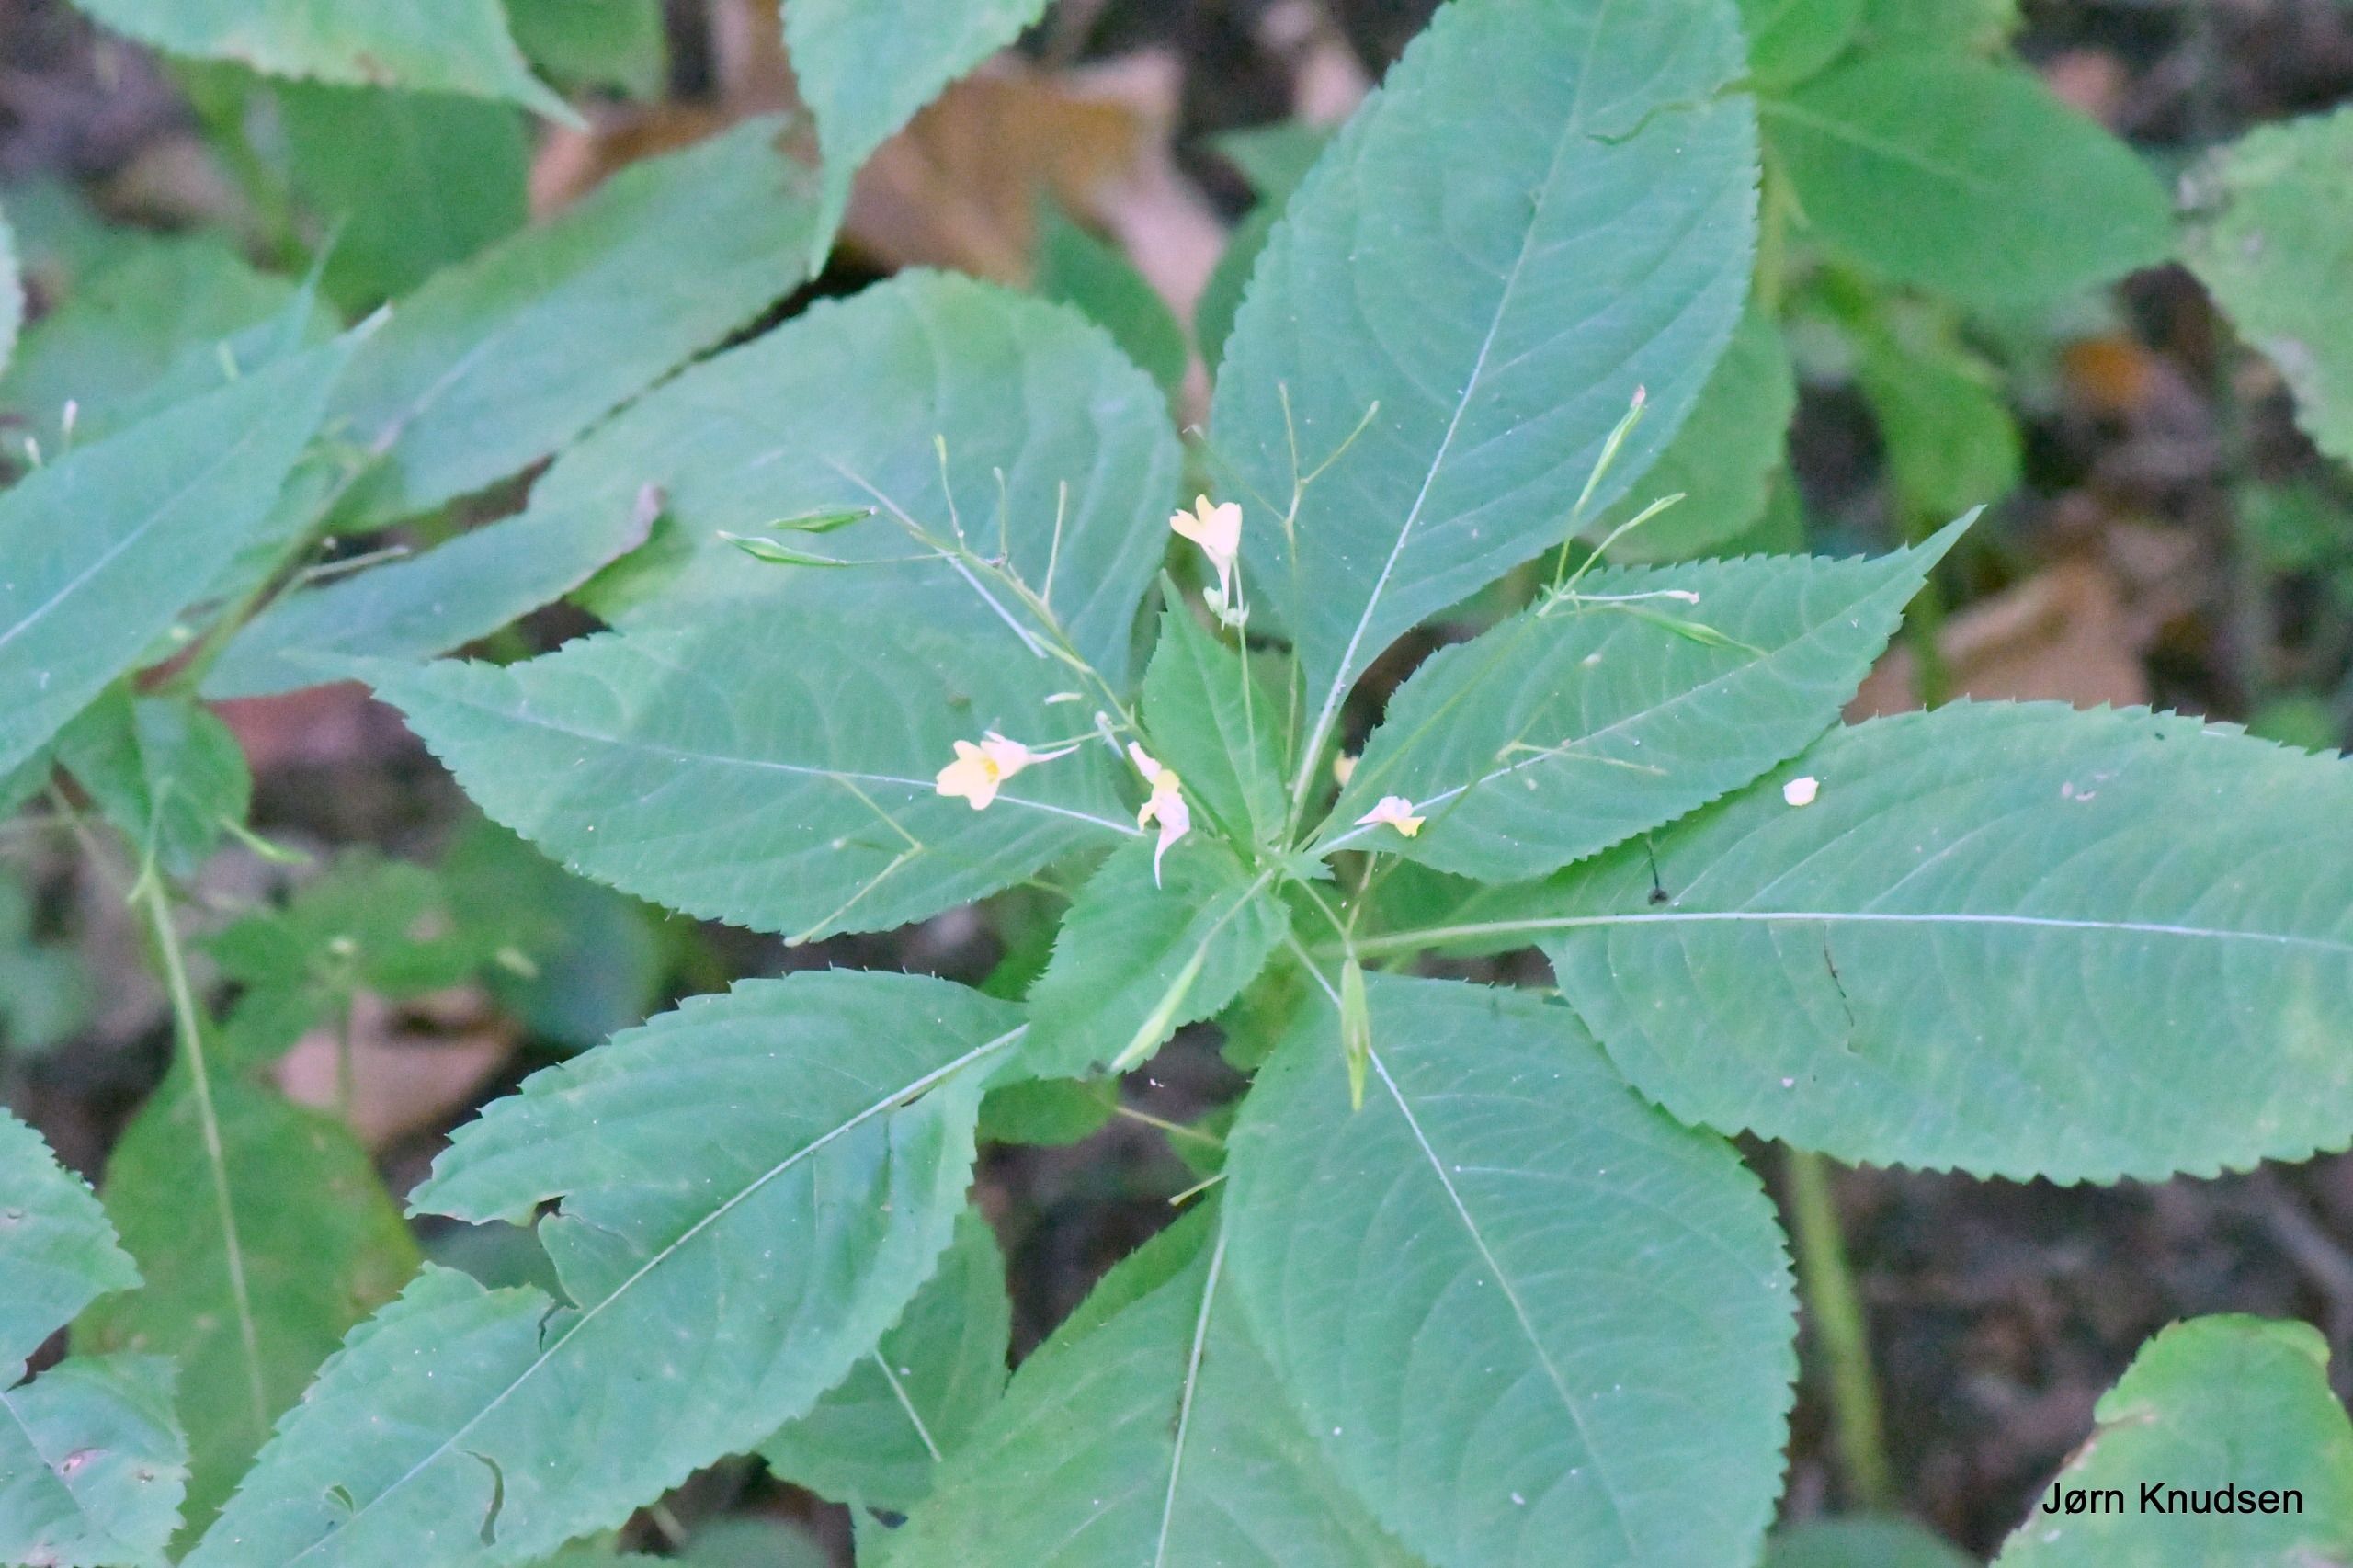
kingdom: Plantae
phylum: Tracheophyta
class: Magnoliopsida
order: Ericales
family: Balsaminaceae
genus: Impatiens
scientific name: Impatiens parviflora
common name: Småblomstret balsamin
